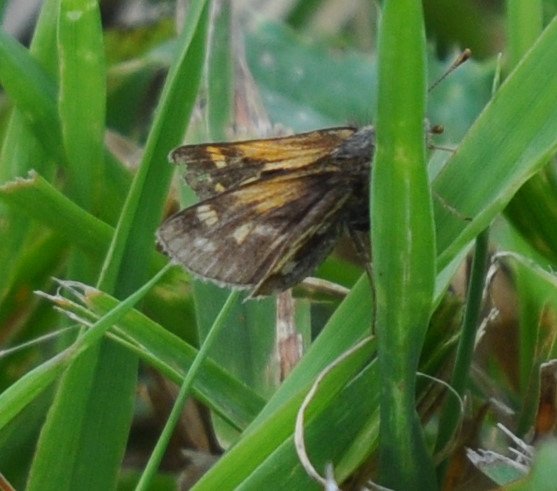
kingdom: Animalia
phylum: Arthropoda
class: Insecta
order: Lepidoptera
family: Hesperiidae
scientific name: Hesperiidae
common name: Skippers
